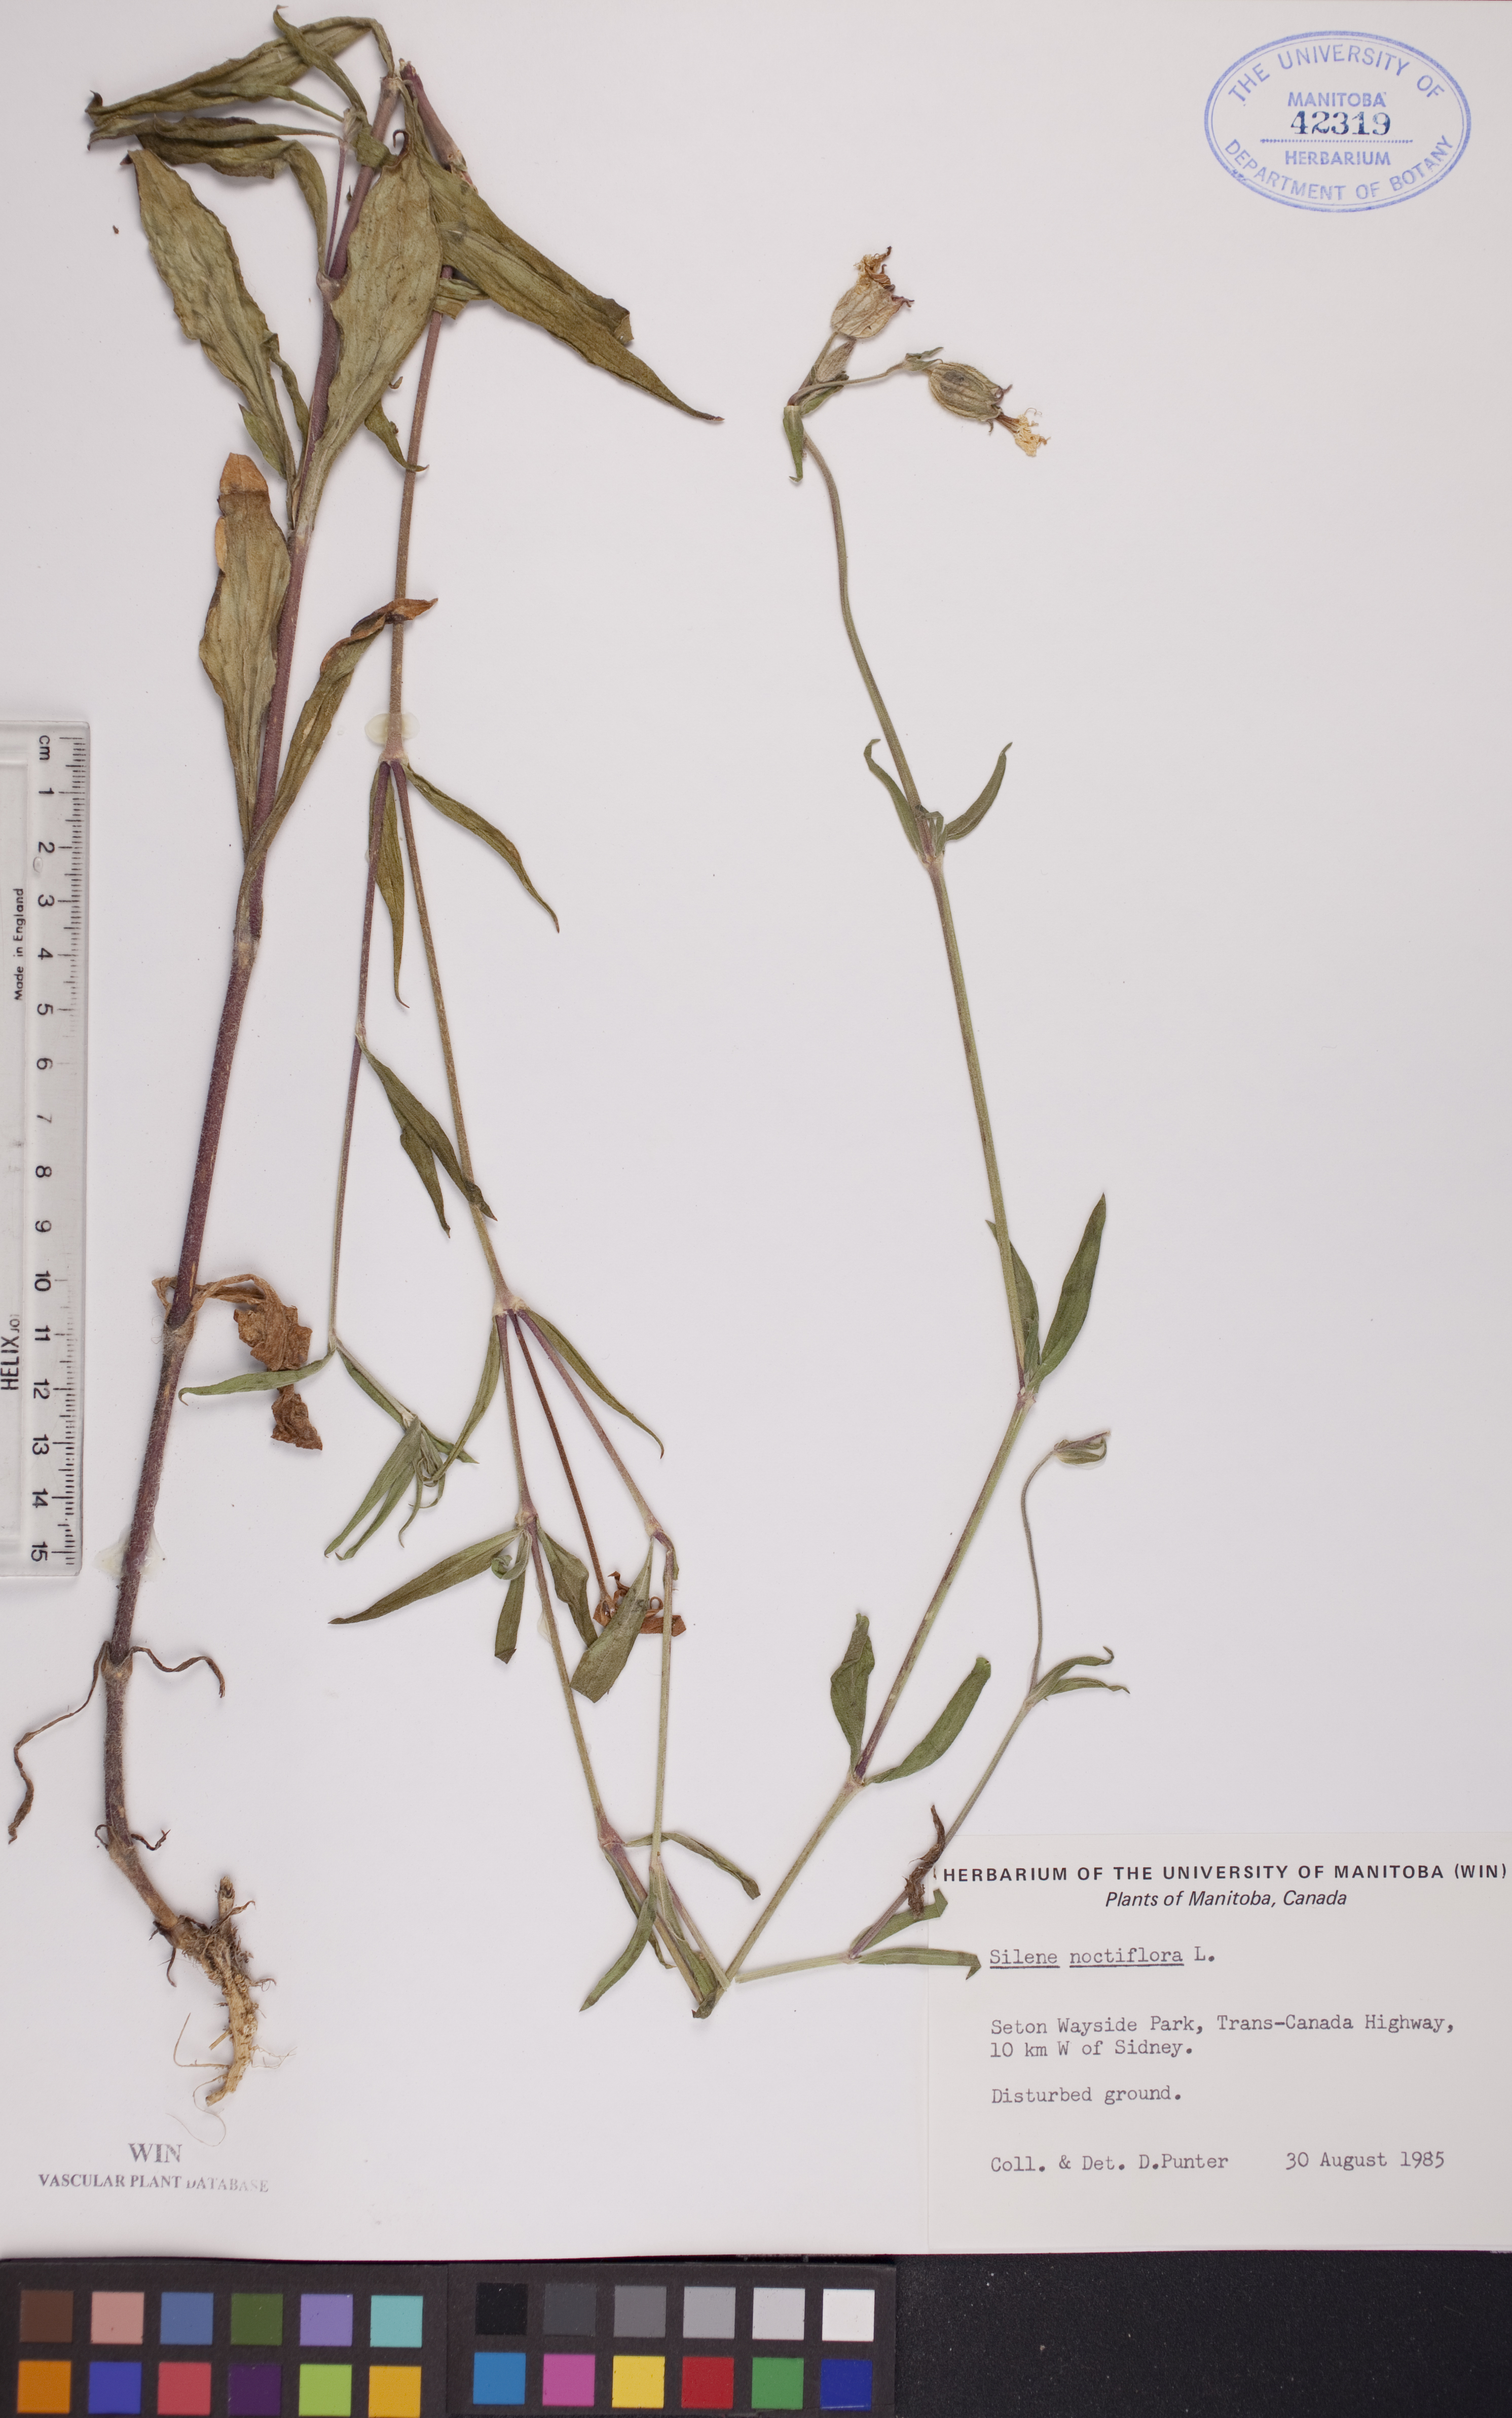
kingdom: Plantae
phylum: Tracheophyta
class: Magnoliopsida
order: Caryophyllales
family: Caryophyllaceae
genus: Silene
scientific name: Silene noctiflora
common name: Night-flowering catchfly
